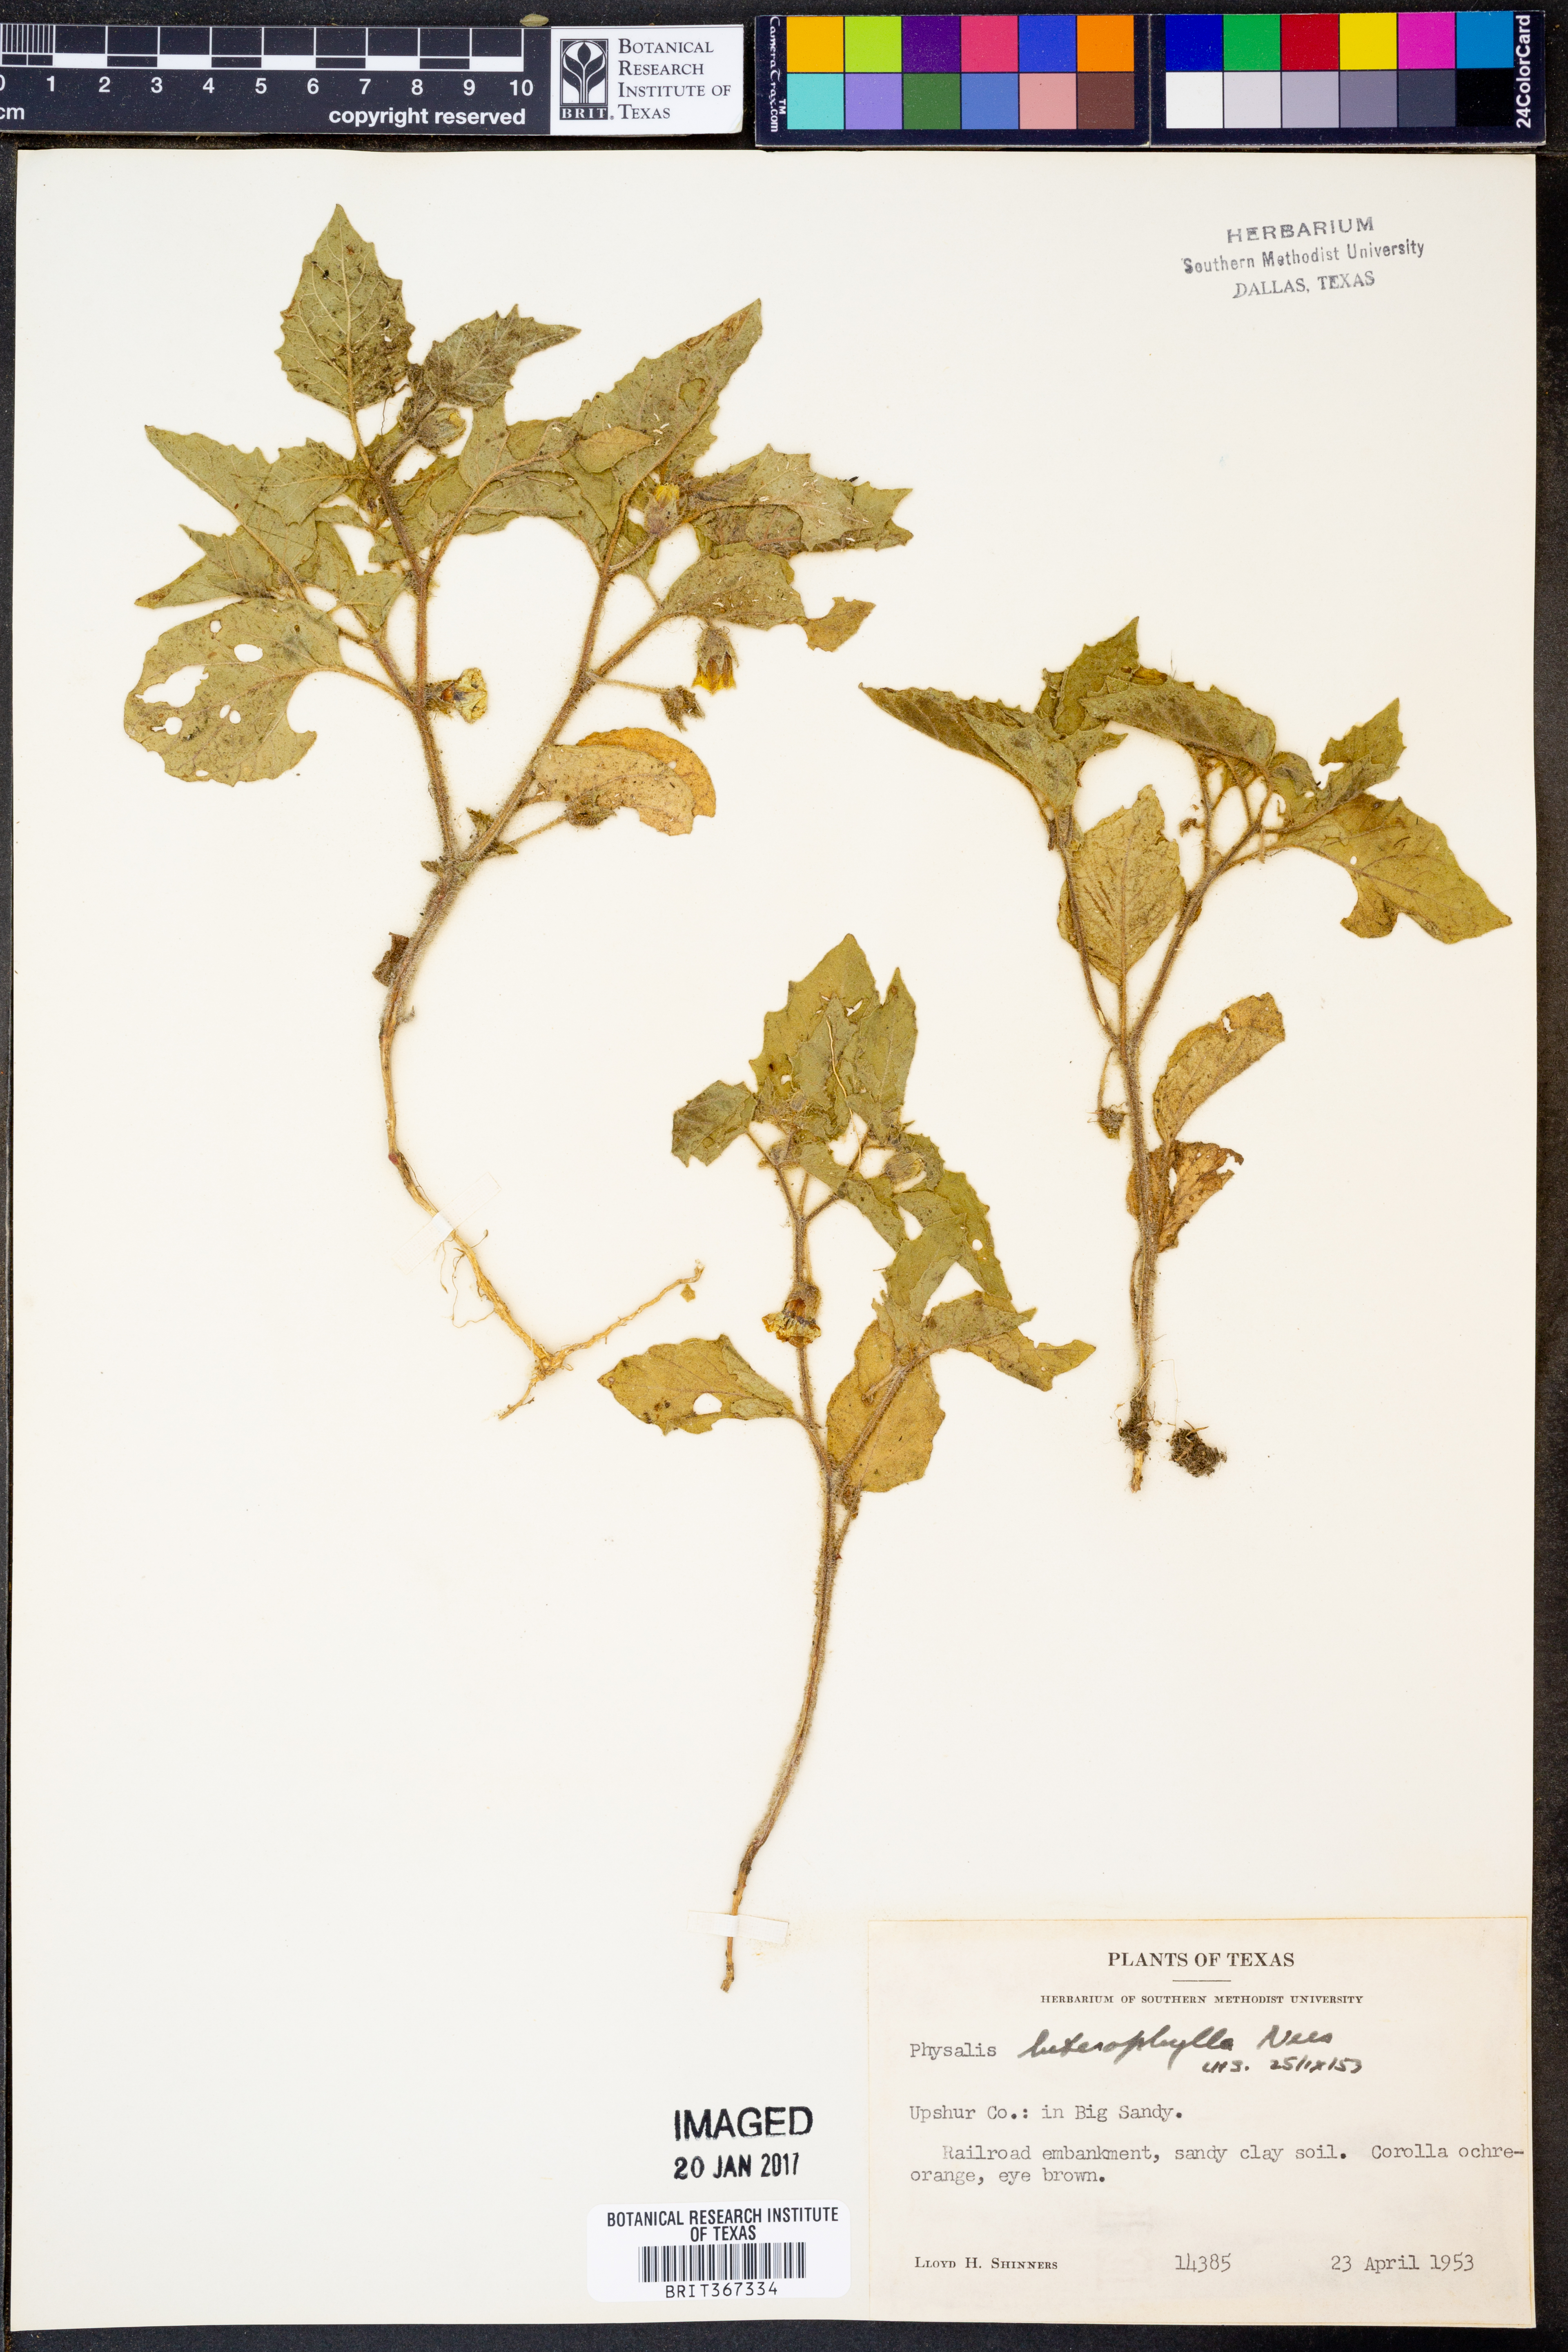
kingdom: Plantae
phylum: Tracheophyta
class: Magnoliopsida
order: Solanales
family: Solanaceae
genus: Physalis
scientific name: Physalis heterophylla
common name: Clammy ground-cherry
